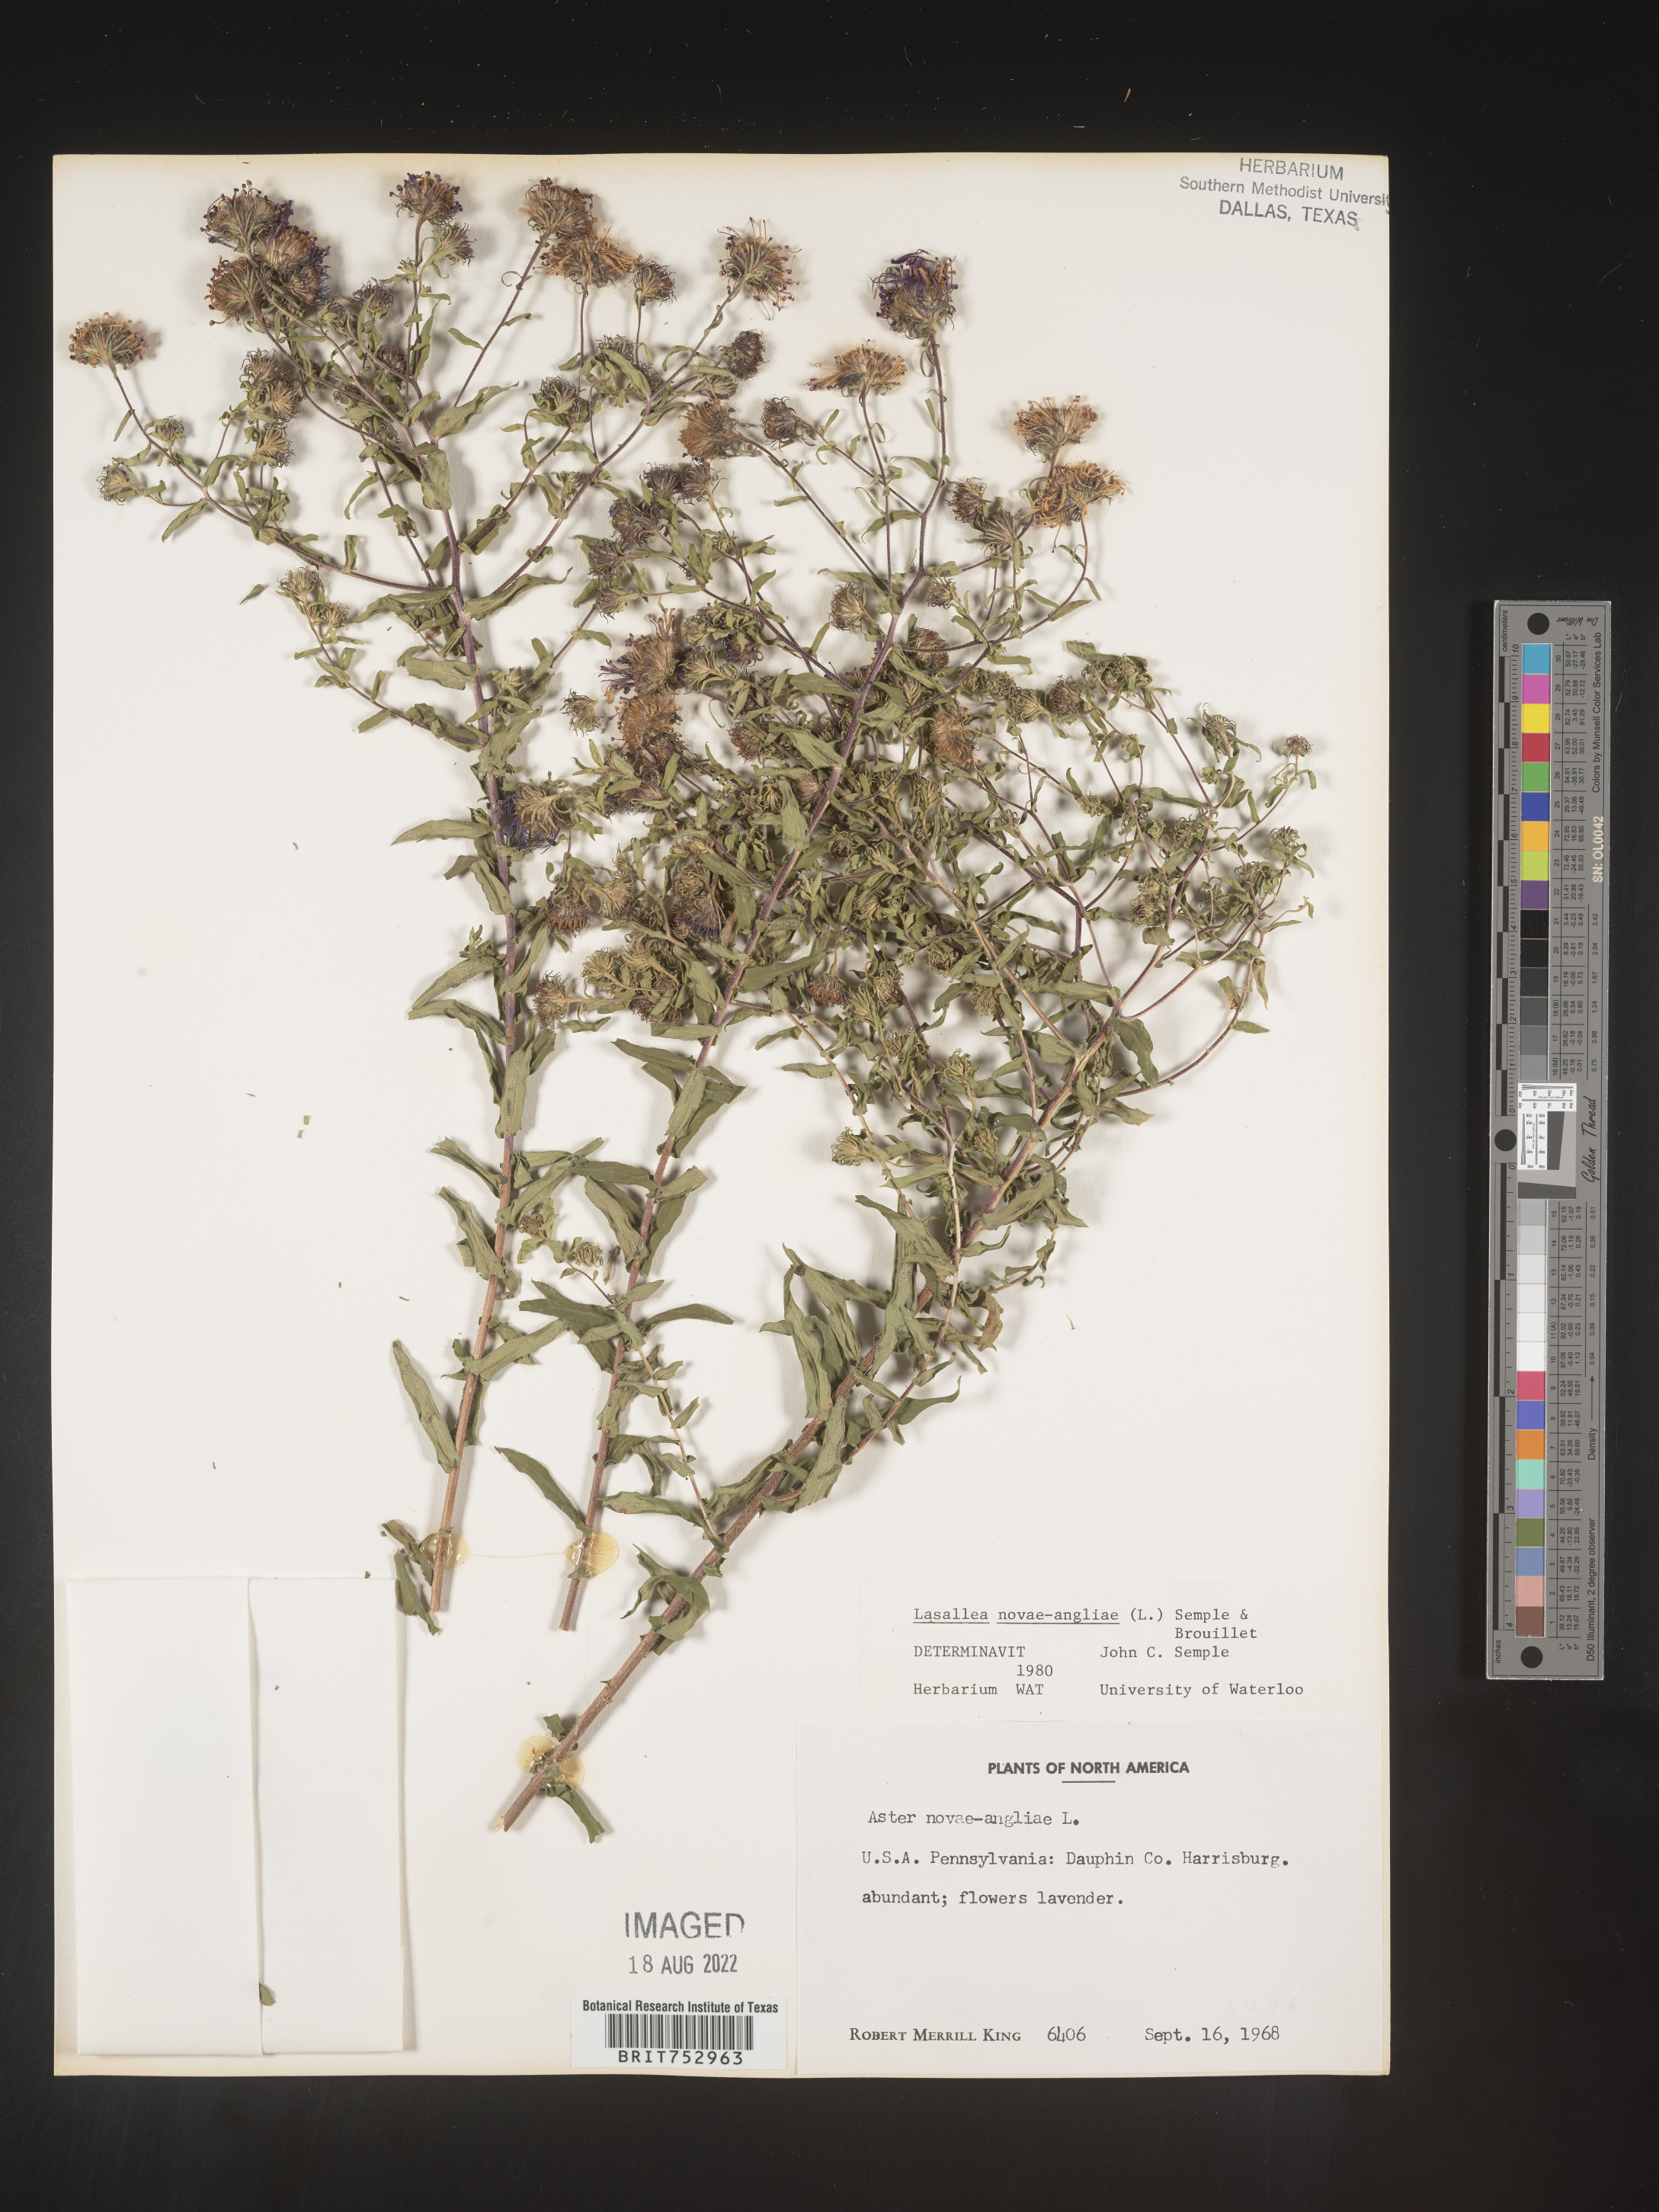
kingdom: Plantae
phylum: Tracheophyta
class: Magnoliopsida
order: Asterales
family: Asteraceae
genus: Symphyotrichum
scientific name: Symphyotrichum novae-angliae
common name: Michaelmas daisy
